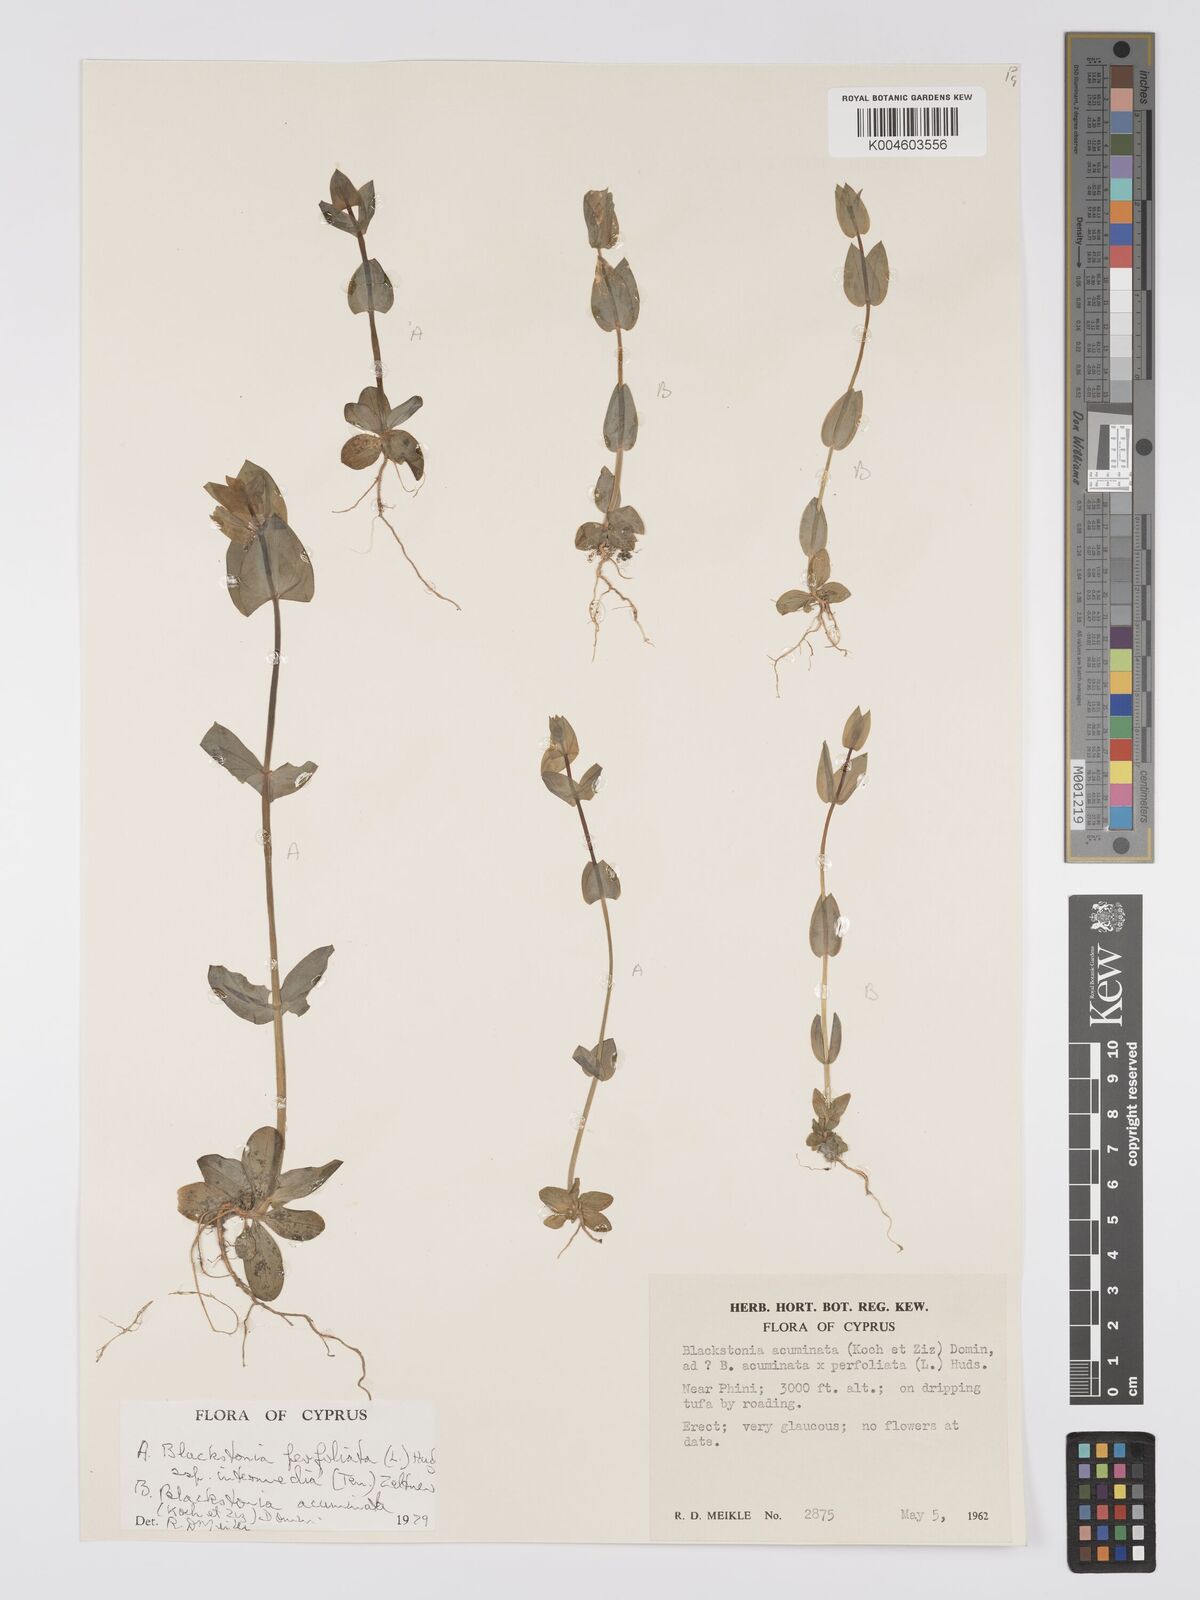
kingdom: Plantae
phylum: Tracheophyta
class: Magnoliopsida
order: Gentianales
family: Gentianaceae
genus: Blackstonia
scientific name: Blackstonia acuminata
